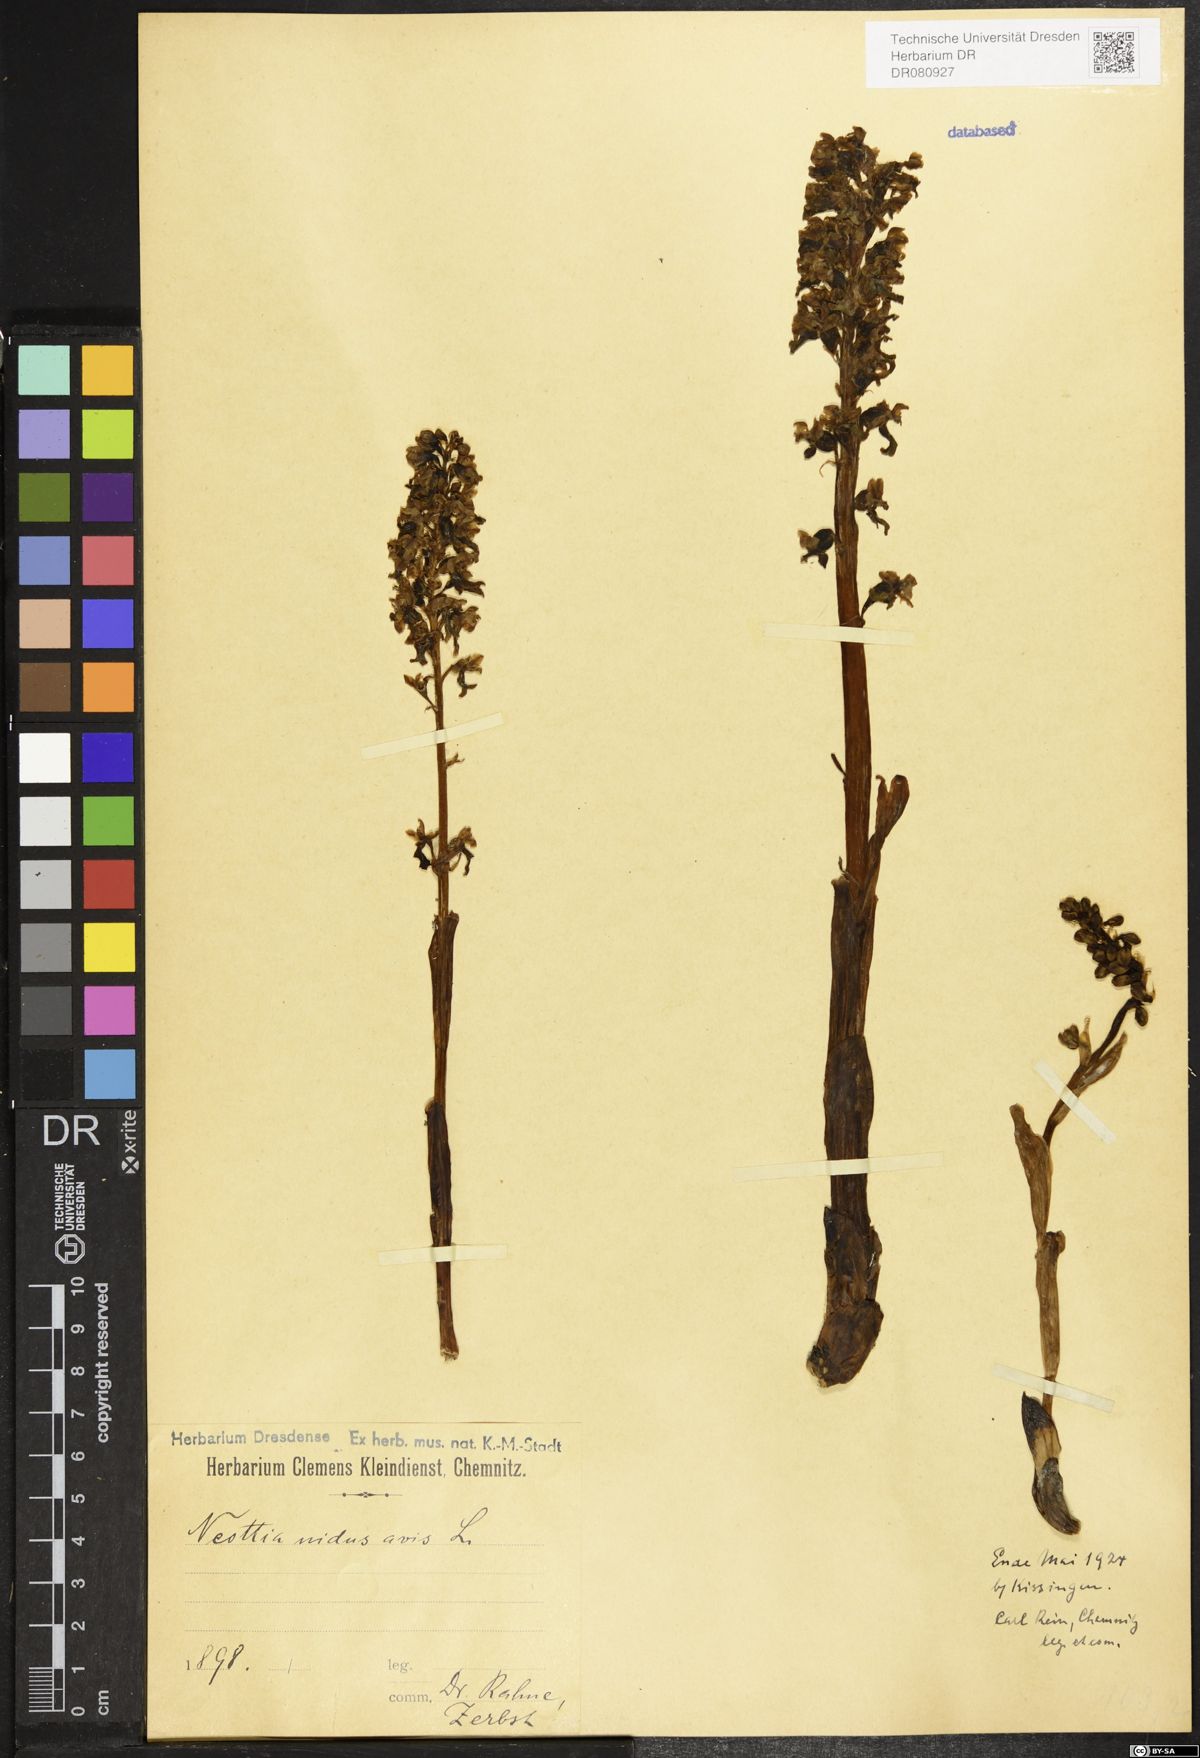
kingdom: Plantae
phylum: Tracheophyta
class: Liliopsida
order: Asparagales
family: Orchidaceae
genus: Neottia
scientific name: Neottia nidus-avis
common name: Bird's-nest orchid
